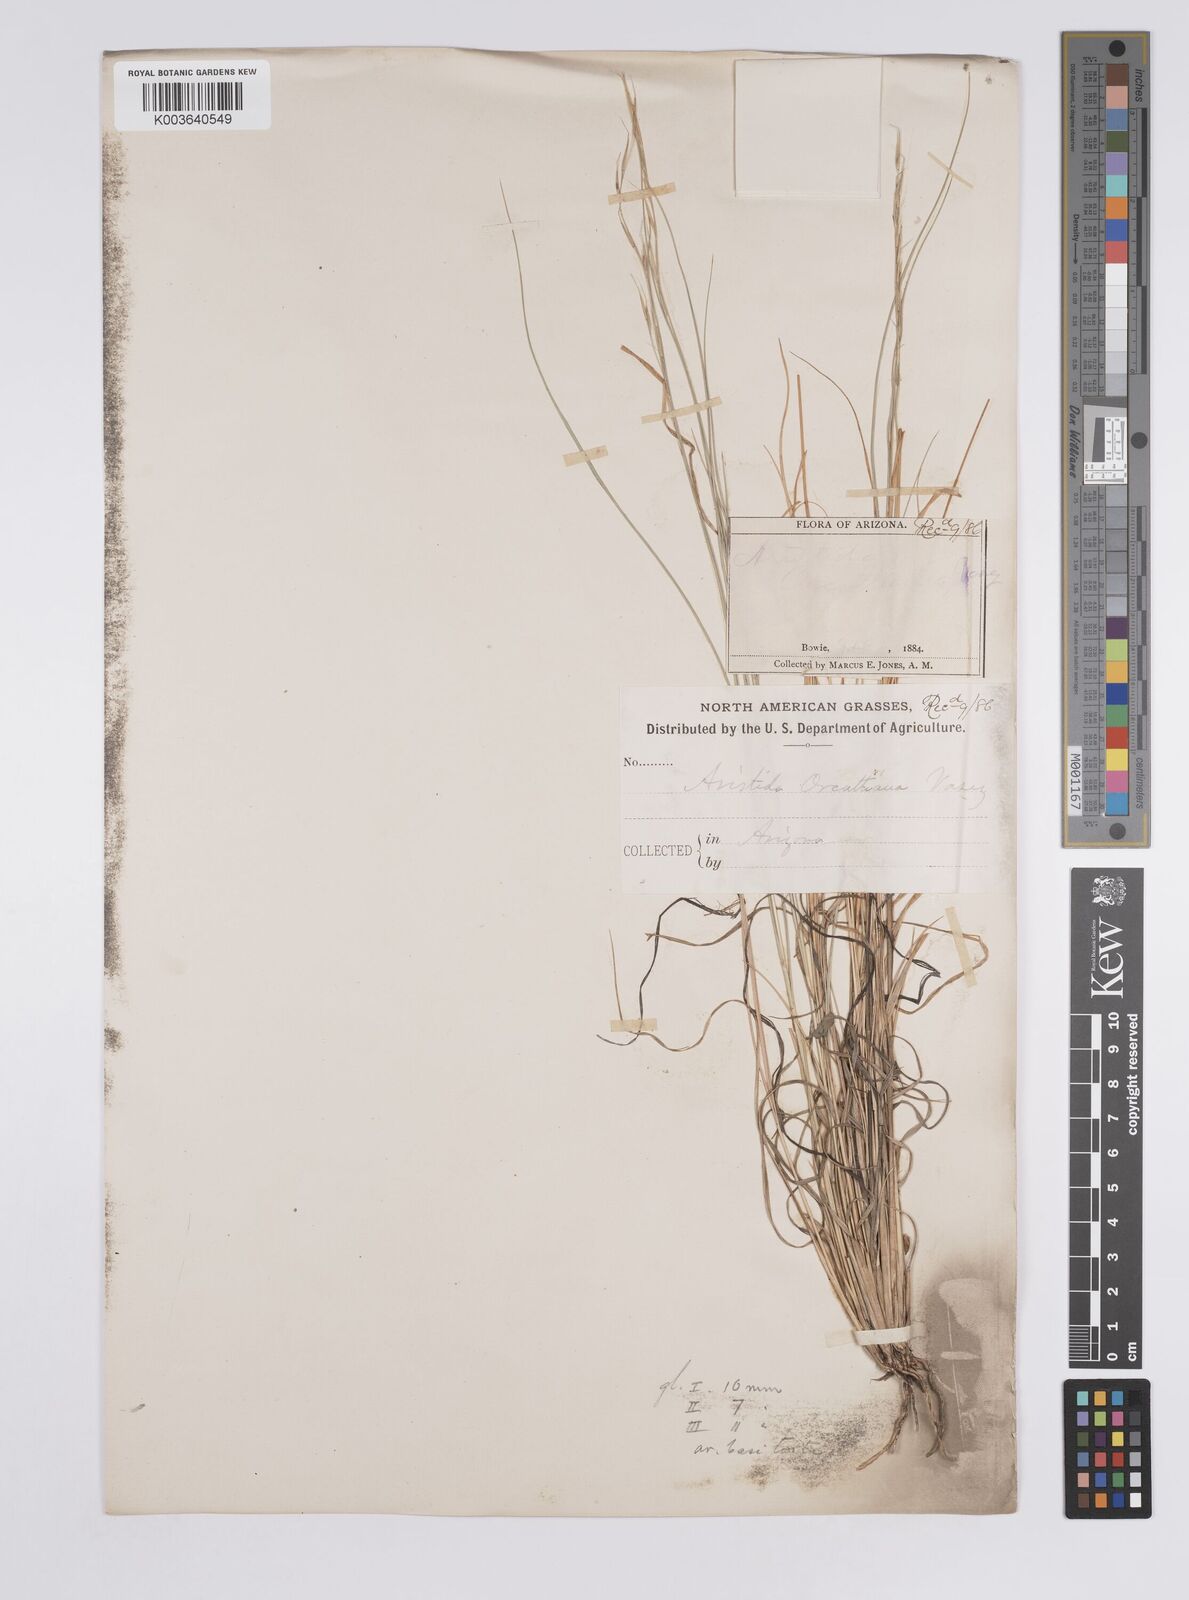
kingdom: Plantae
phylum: Tracheophyta
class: Liliopsida
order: Poales
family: Poaceae
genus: Aristida
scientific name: Aristida schiedeana
